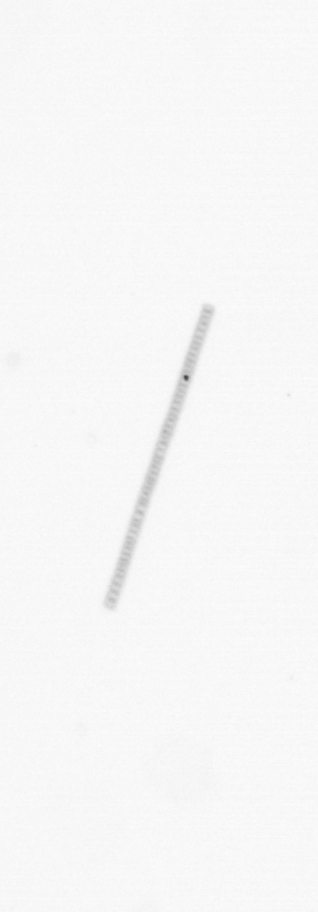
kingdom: Chromista
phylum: Ochrophyta
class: Bacillariophyceae
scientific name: Bacillariophyceae
